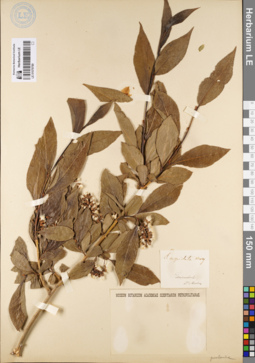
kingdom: Plantae
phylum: Tracheophyta
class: Magnoliopsida
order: Malpighiales
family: Salicaceae
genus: Salix
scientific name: Salix pseudopentandra
